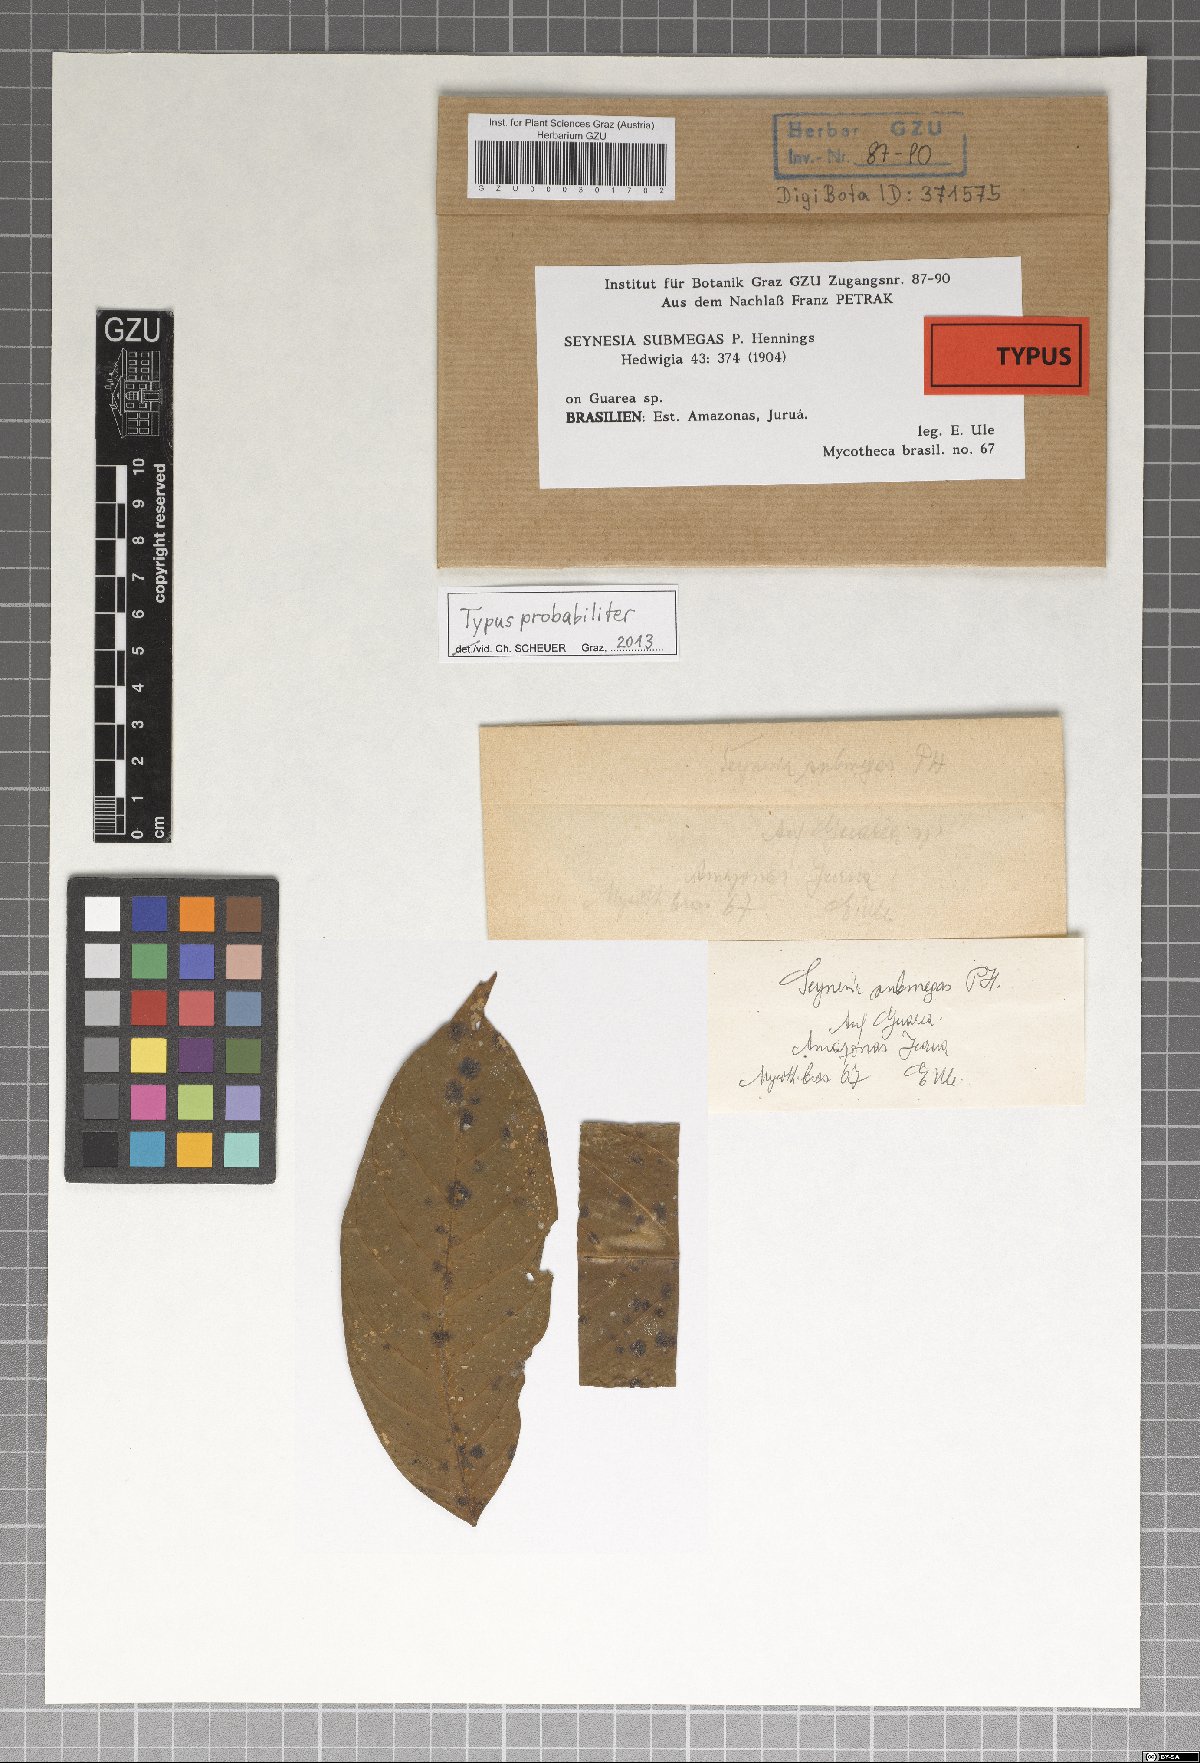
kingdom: Fungi
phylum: Ascomycota
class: Dothideomycetes
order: Asterinales
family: Asterinaceae
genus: Asterina
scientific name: Asterina submegas
